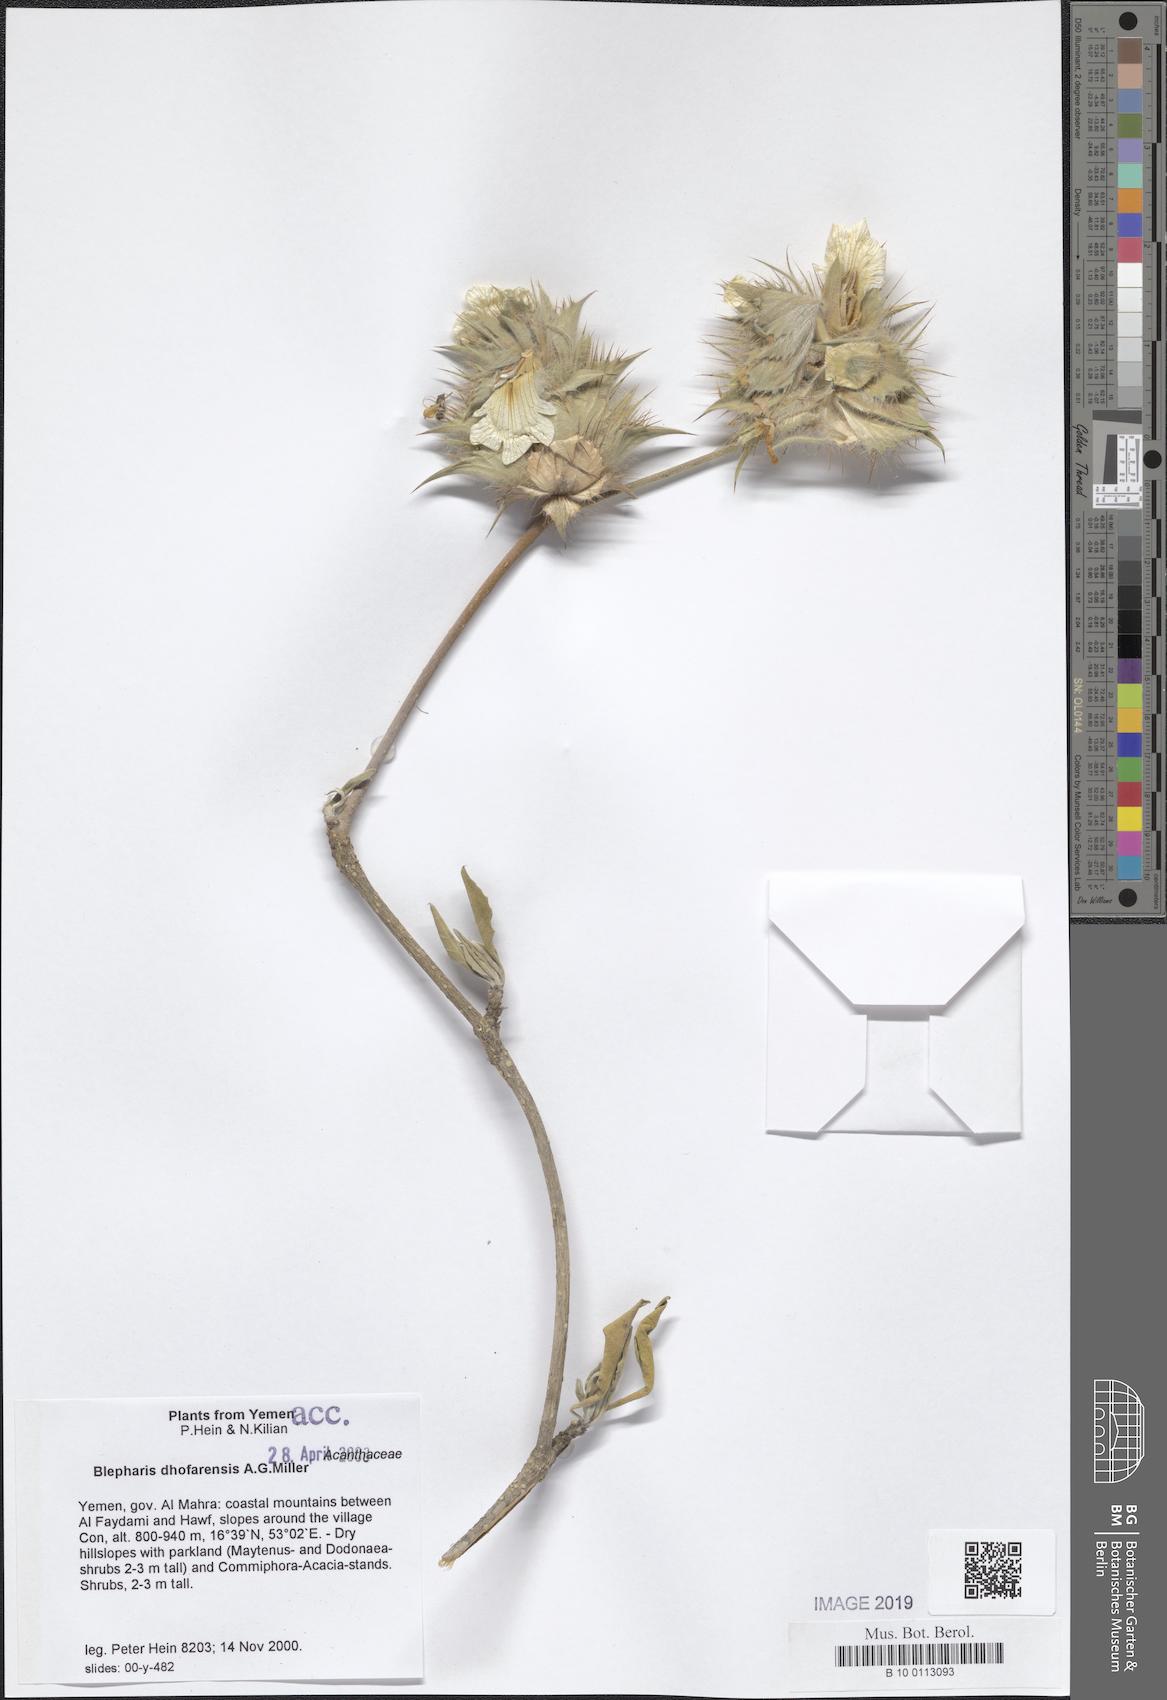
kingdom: Plantae
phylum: Tracheophyta
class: Magnoliopsida
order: Lamiales
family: Acanthaceae
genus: Blepharis
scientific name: Blepharis dhofarensis
